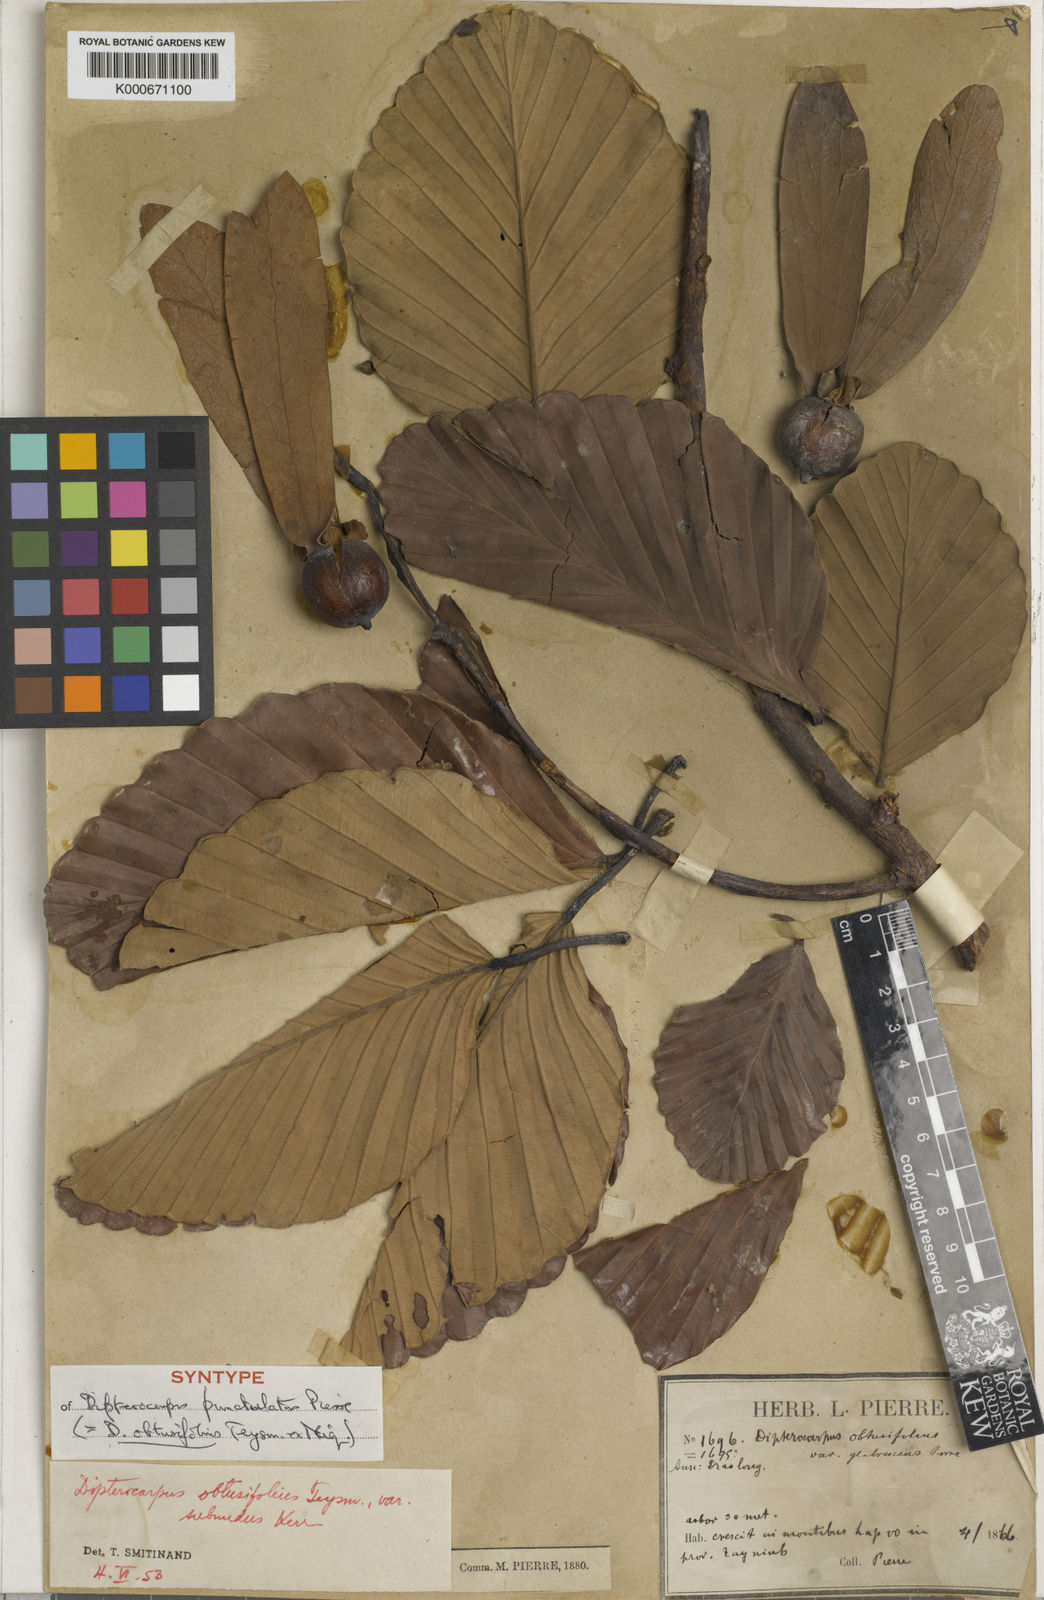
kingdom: Plantae
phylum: Tracheophyta
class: Magnoliopsida
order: Malvales
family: Dipterocarpaceae
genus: Dipterocarpus
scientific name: Dipterocarpus obtusifolius
